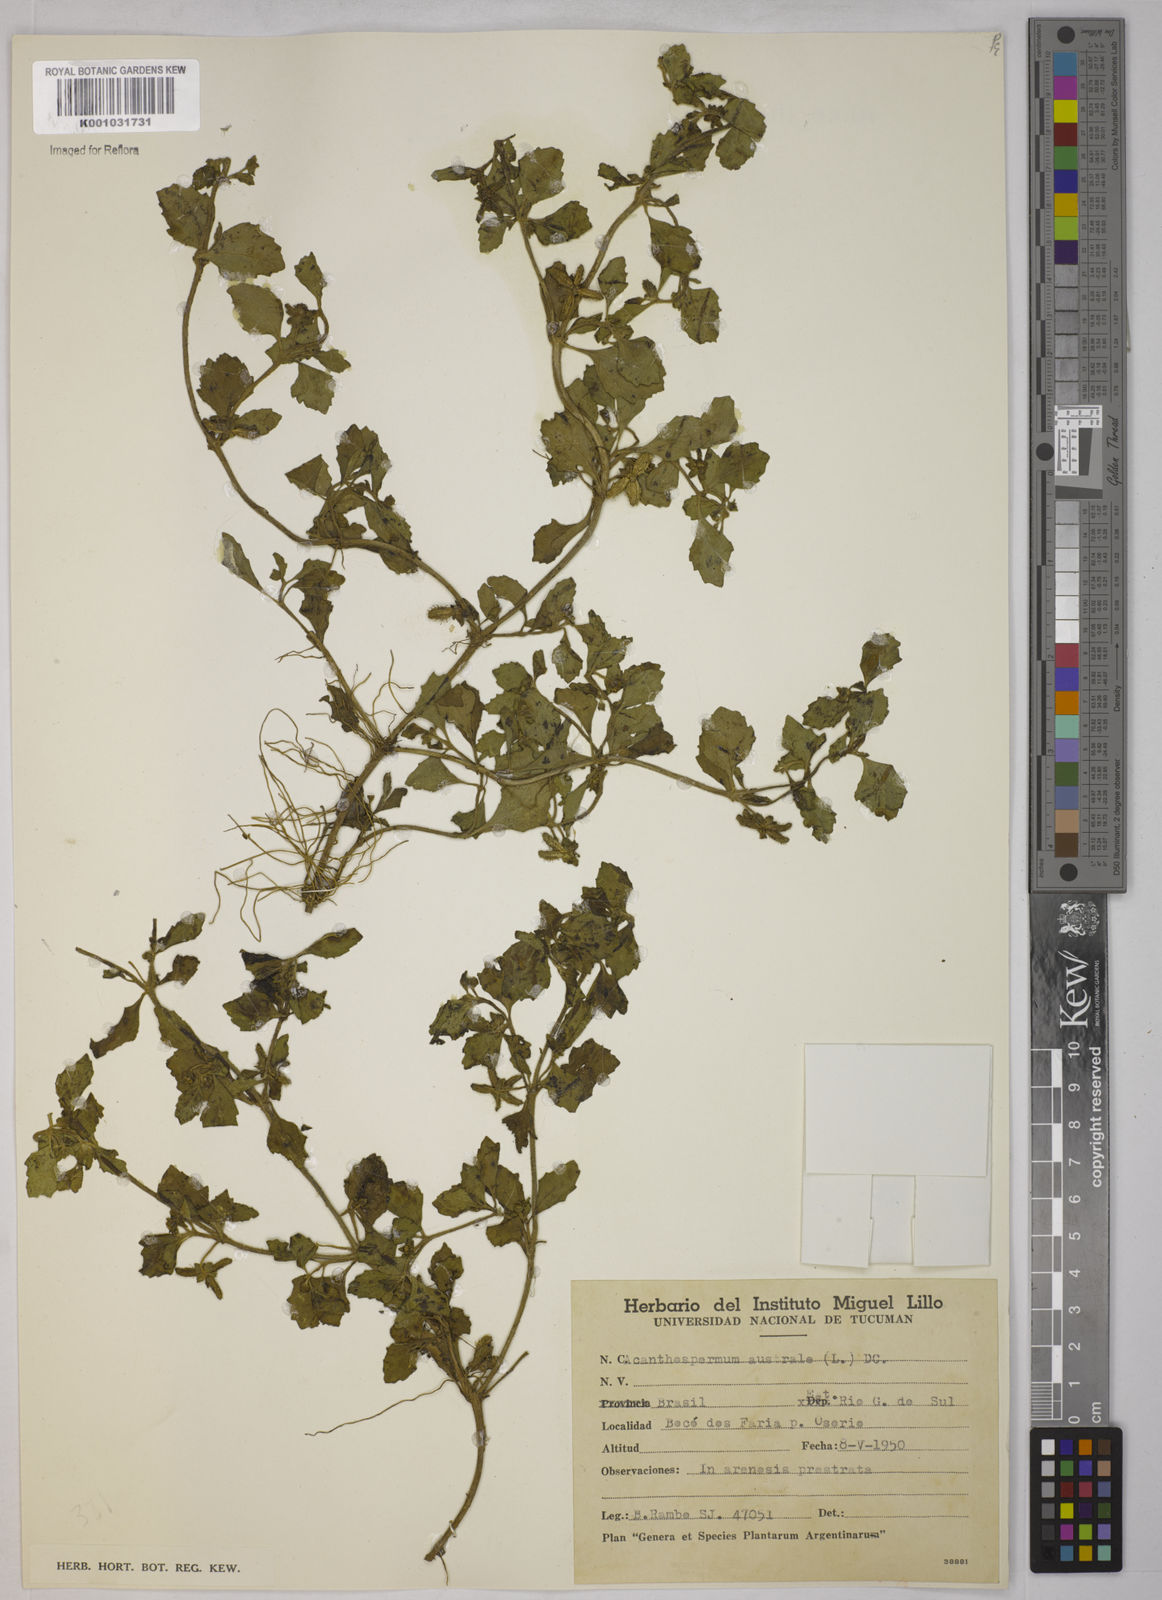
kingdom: Plantae
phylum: Tracheophyta
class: Magnoliopsida
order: Asterales
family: Asteraceae
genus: Acanthospermum
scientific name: Acanthospermum australe
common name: Paraguayan starbur
